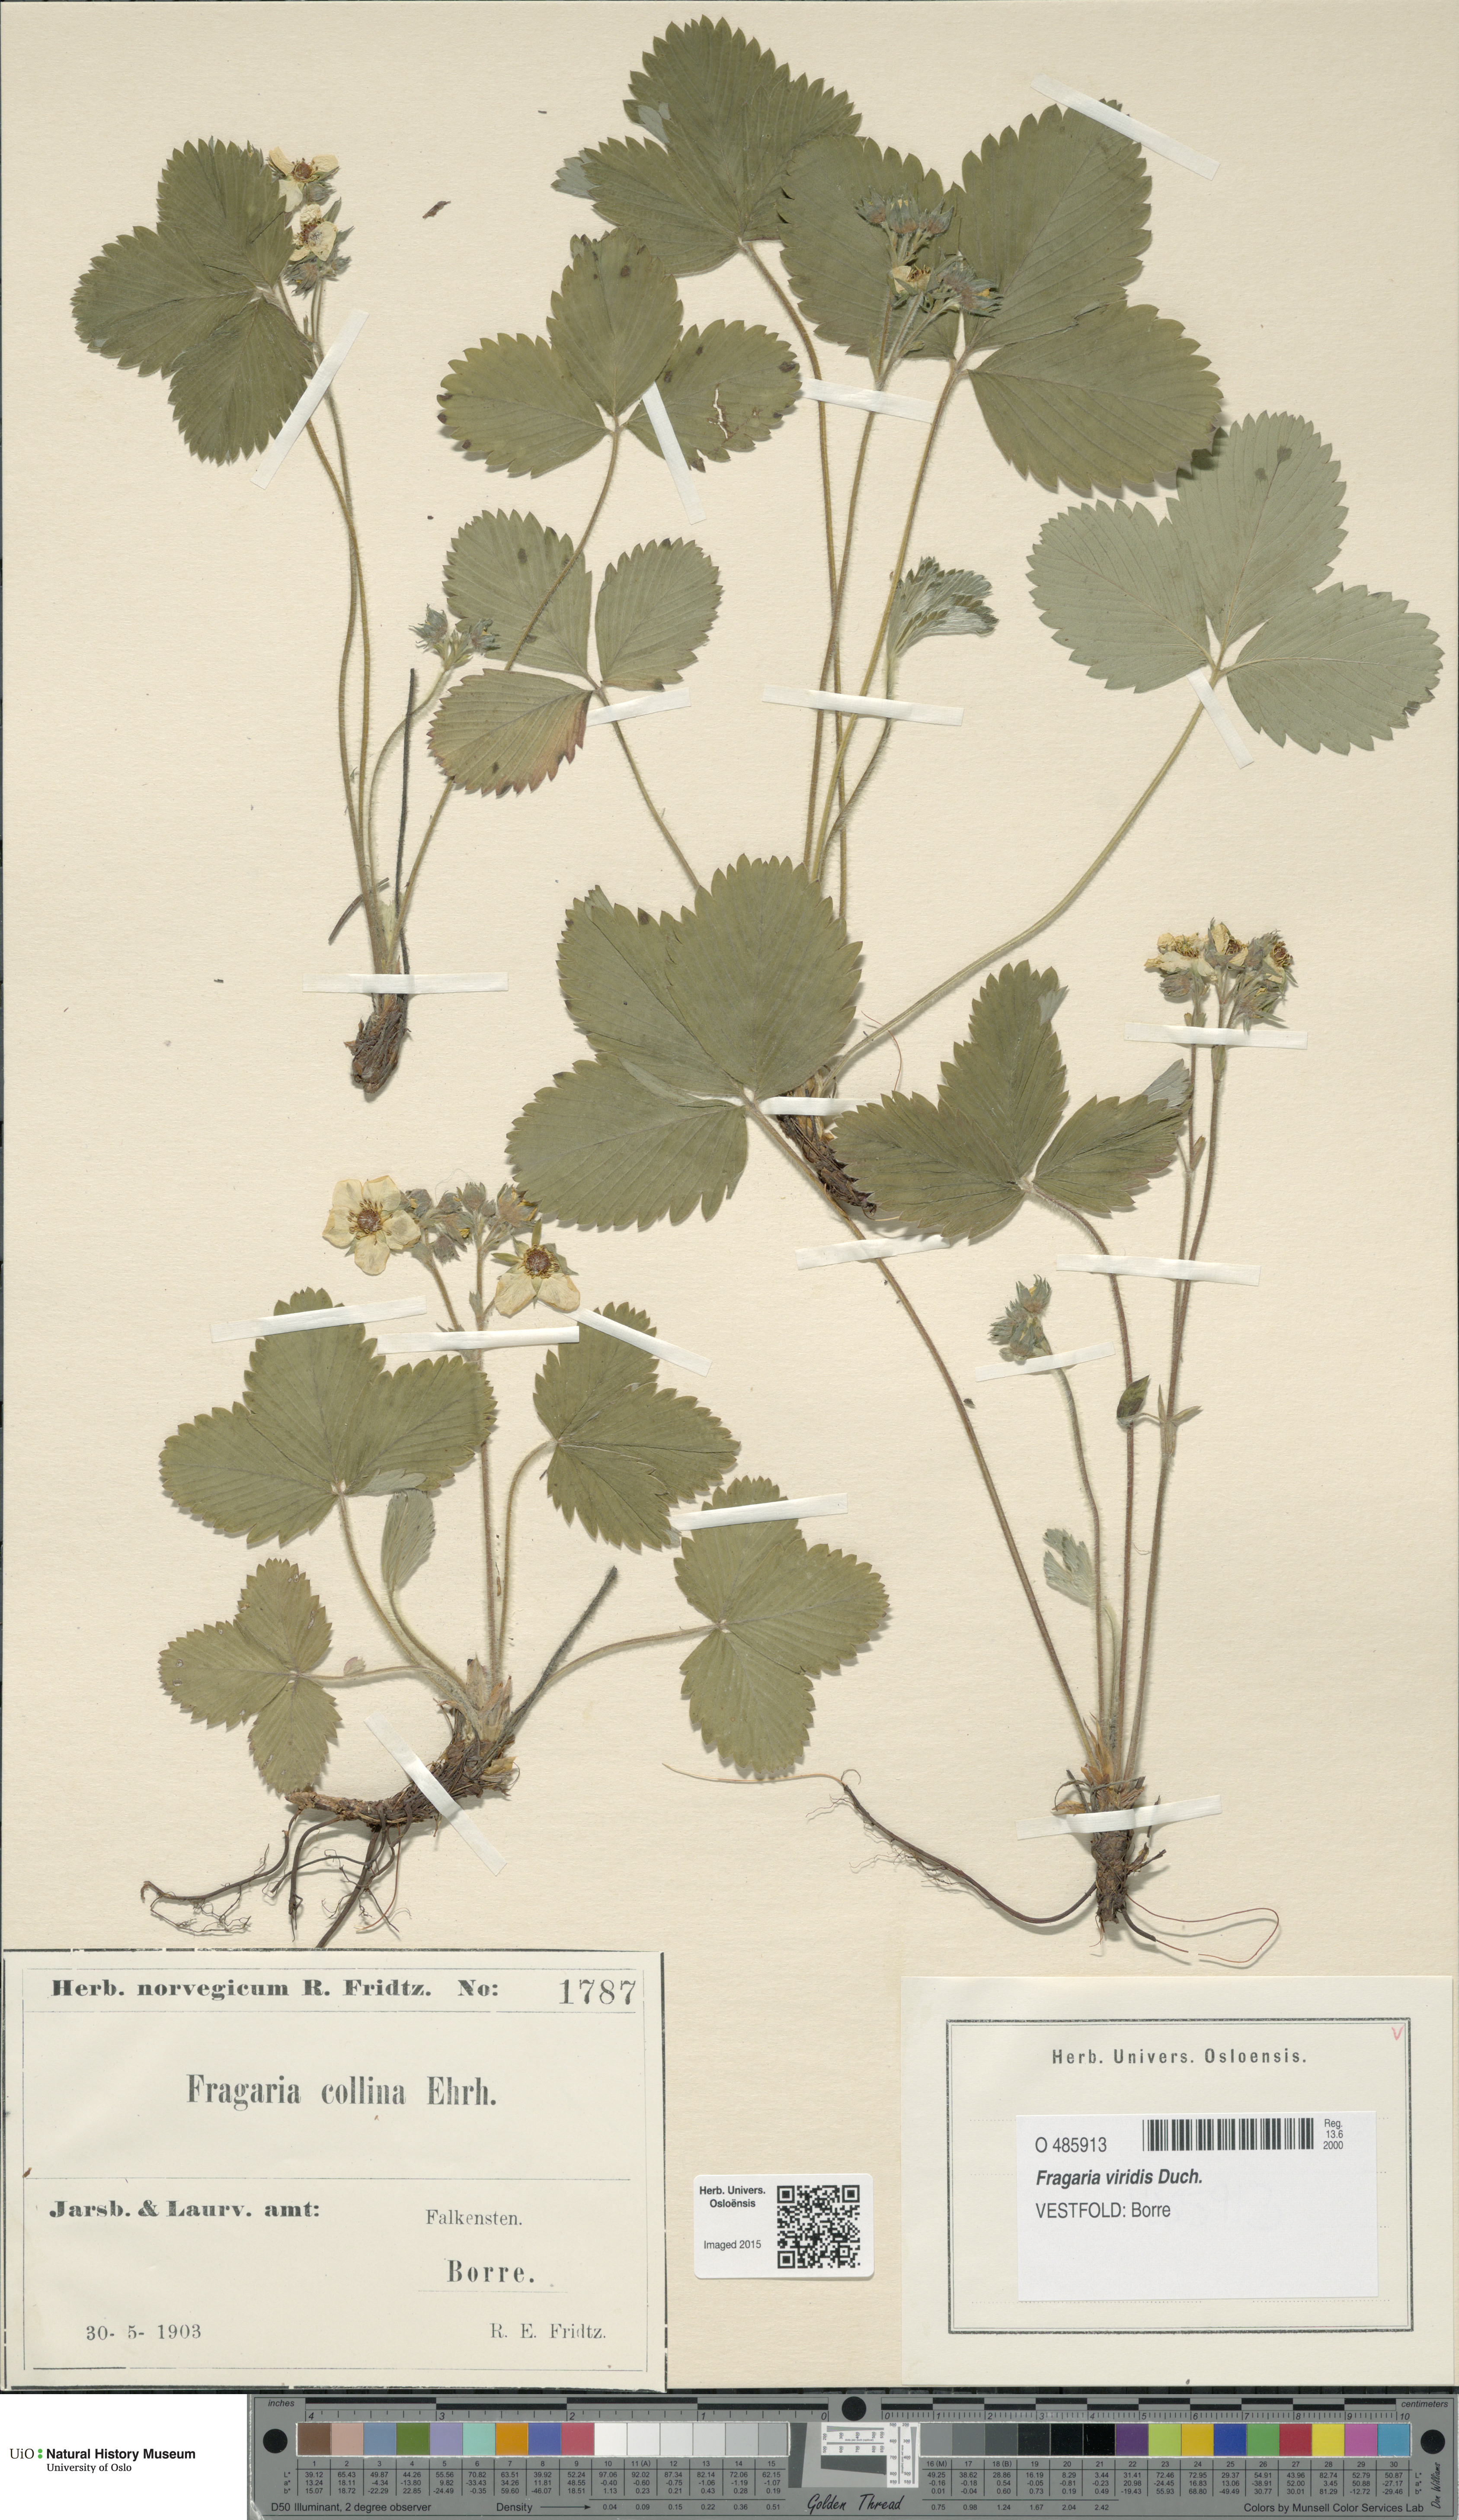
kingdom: Plantae
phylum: Tracheophyta
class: Magnoliopsida
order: Rosales
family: Rosaceae
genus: Fragaria
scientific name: Fragaria viridis
